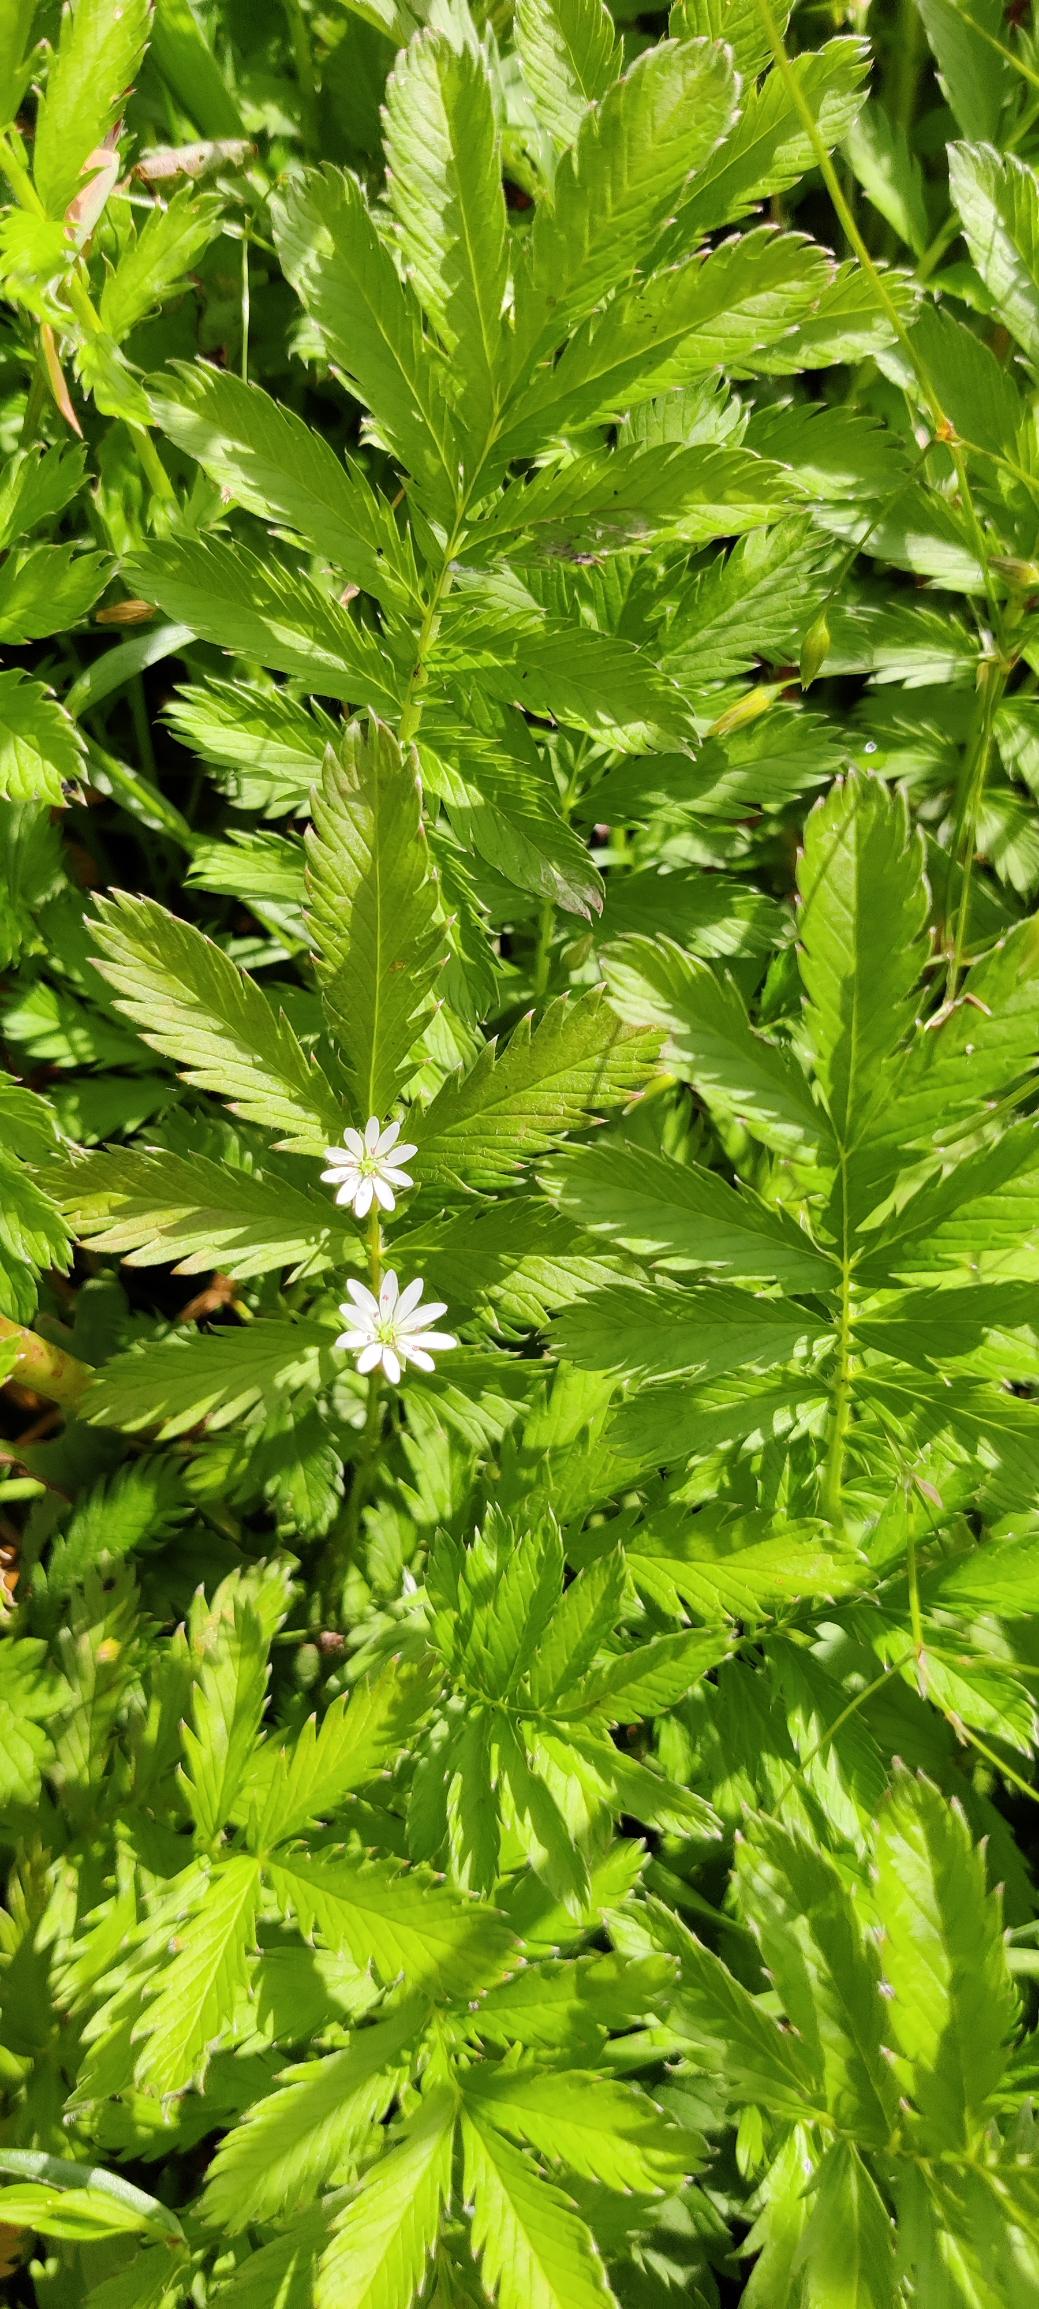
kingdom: Plantae
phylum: Tracheophyta
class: Magnoliopsida
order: Rosales
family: Rosaceae
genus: Agrimonia
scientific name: Agrimonia
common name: Agermåneslægten
